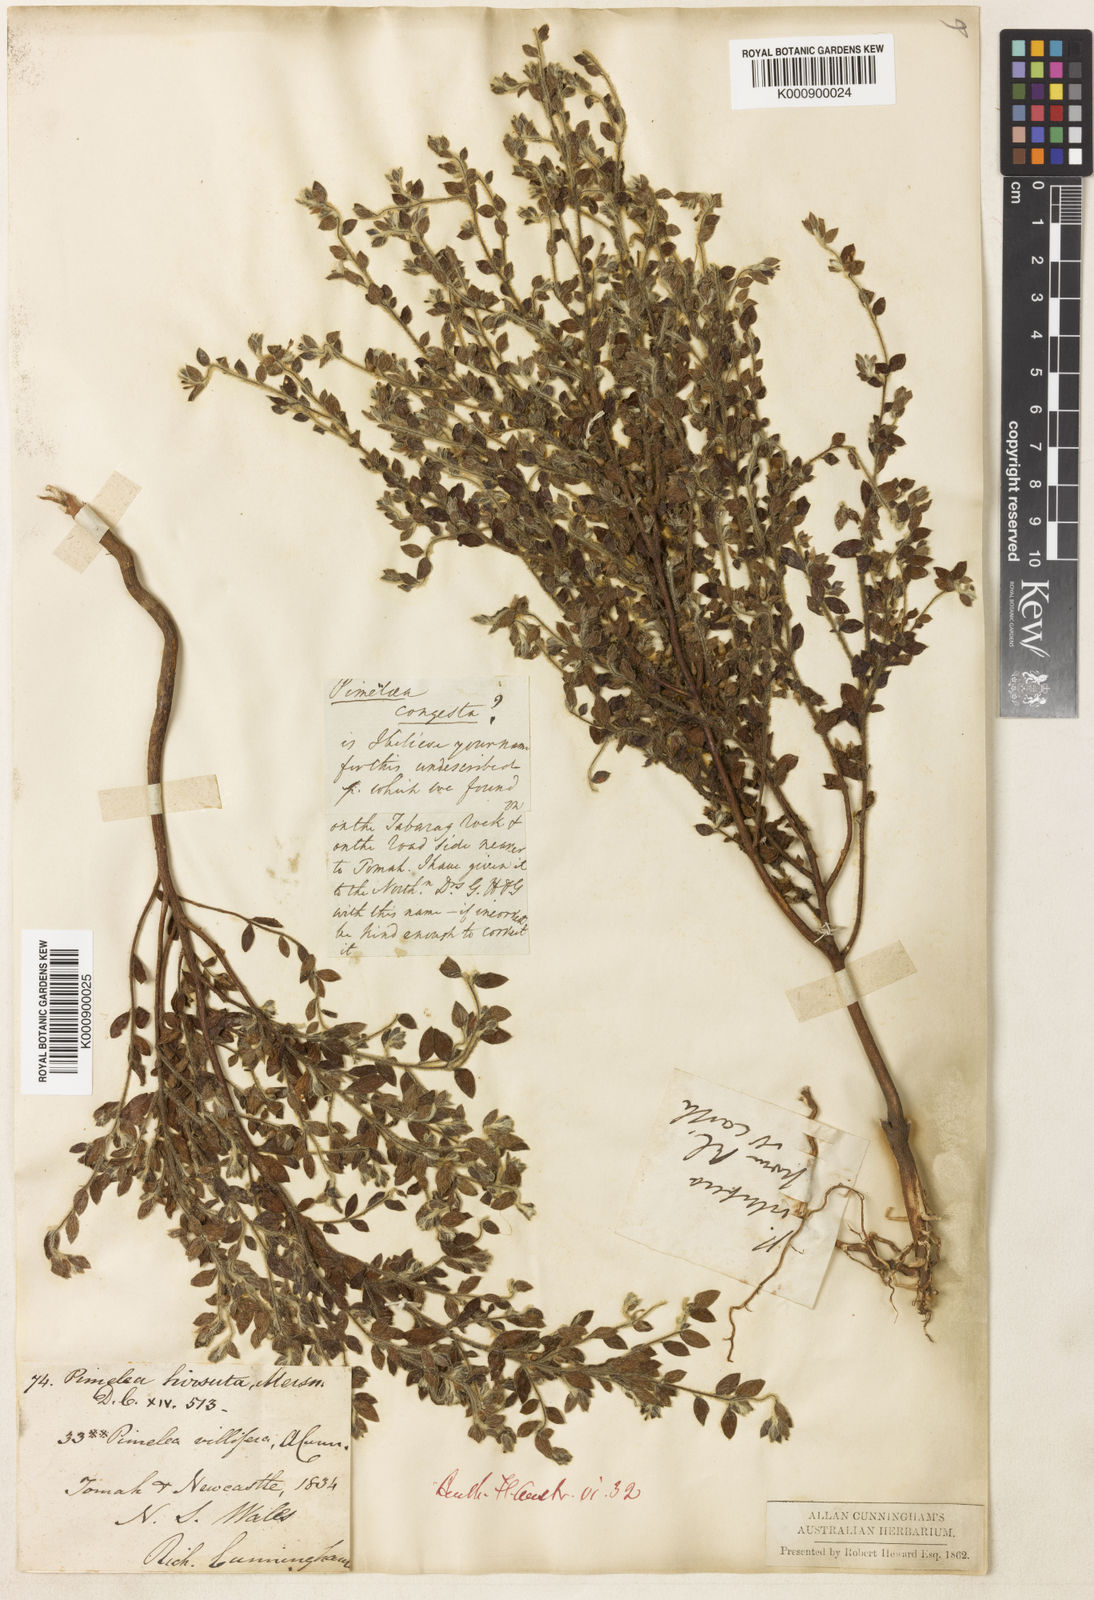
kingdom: Plantae
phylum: Tracheophyta
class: Magnoliopsida
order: Malvales
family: Thymelaeaceae
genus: Pimelea
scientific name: Pimelea hirsuta
